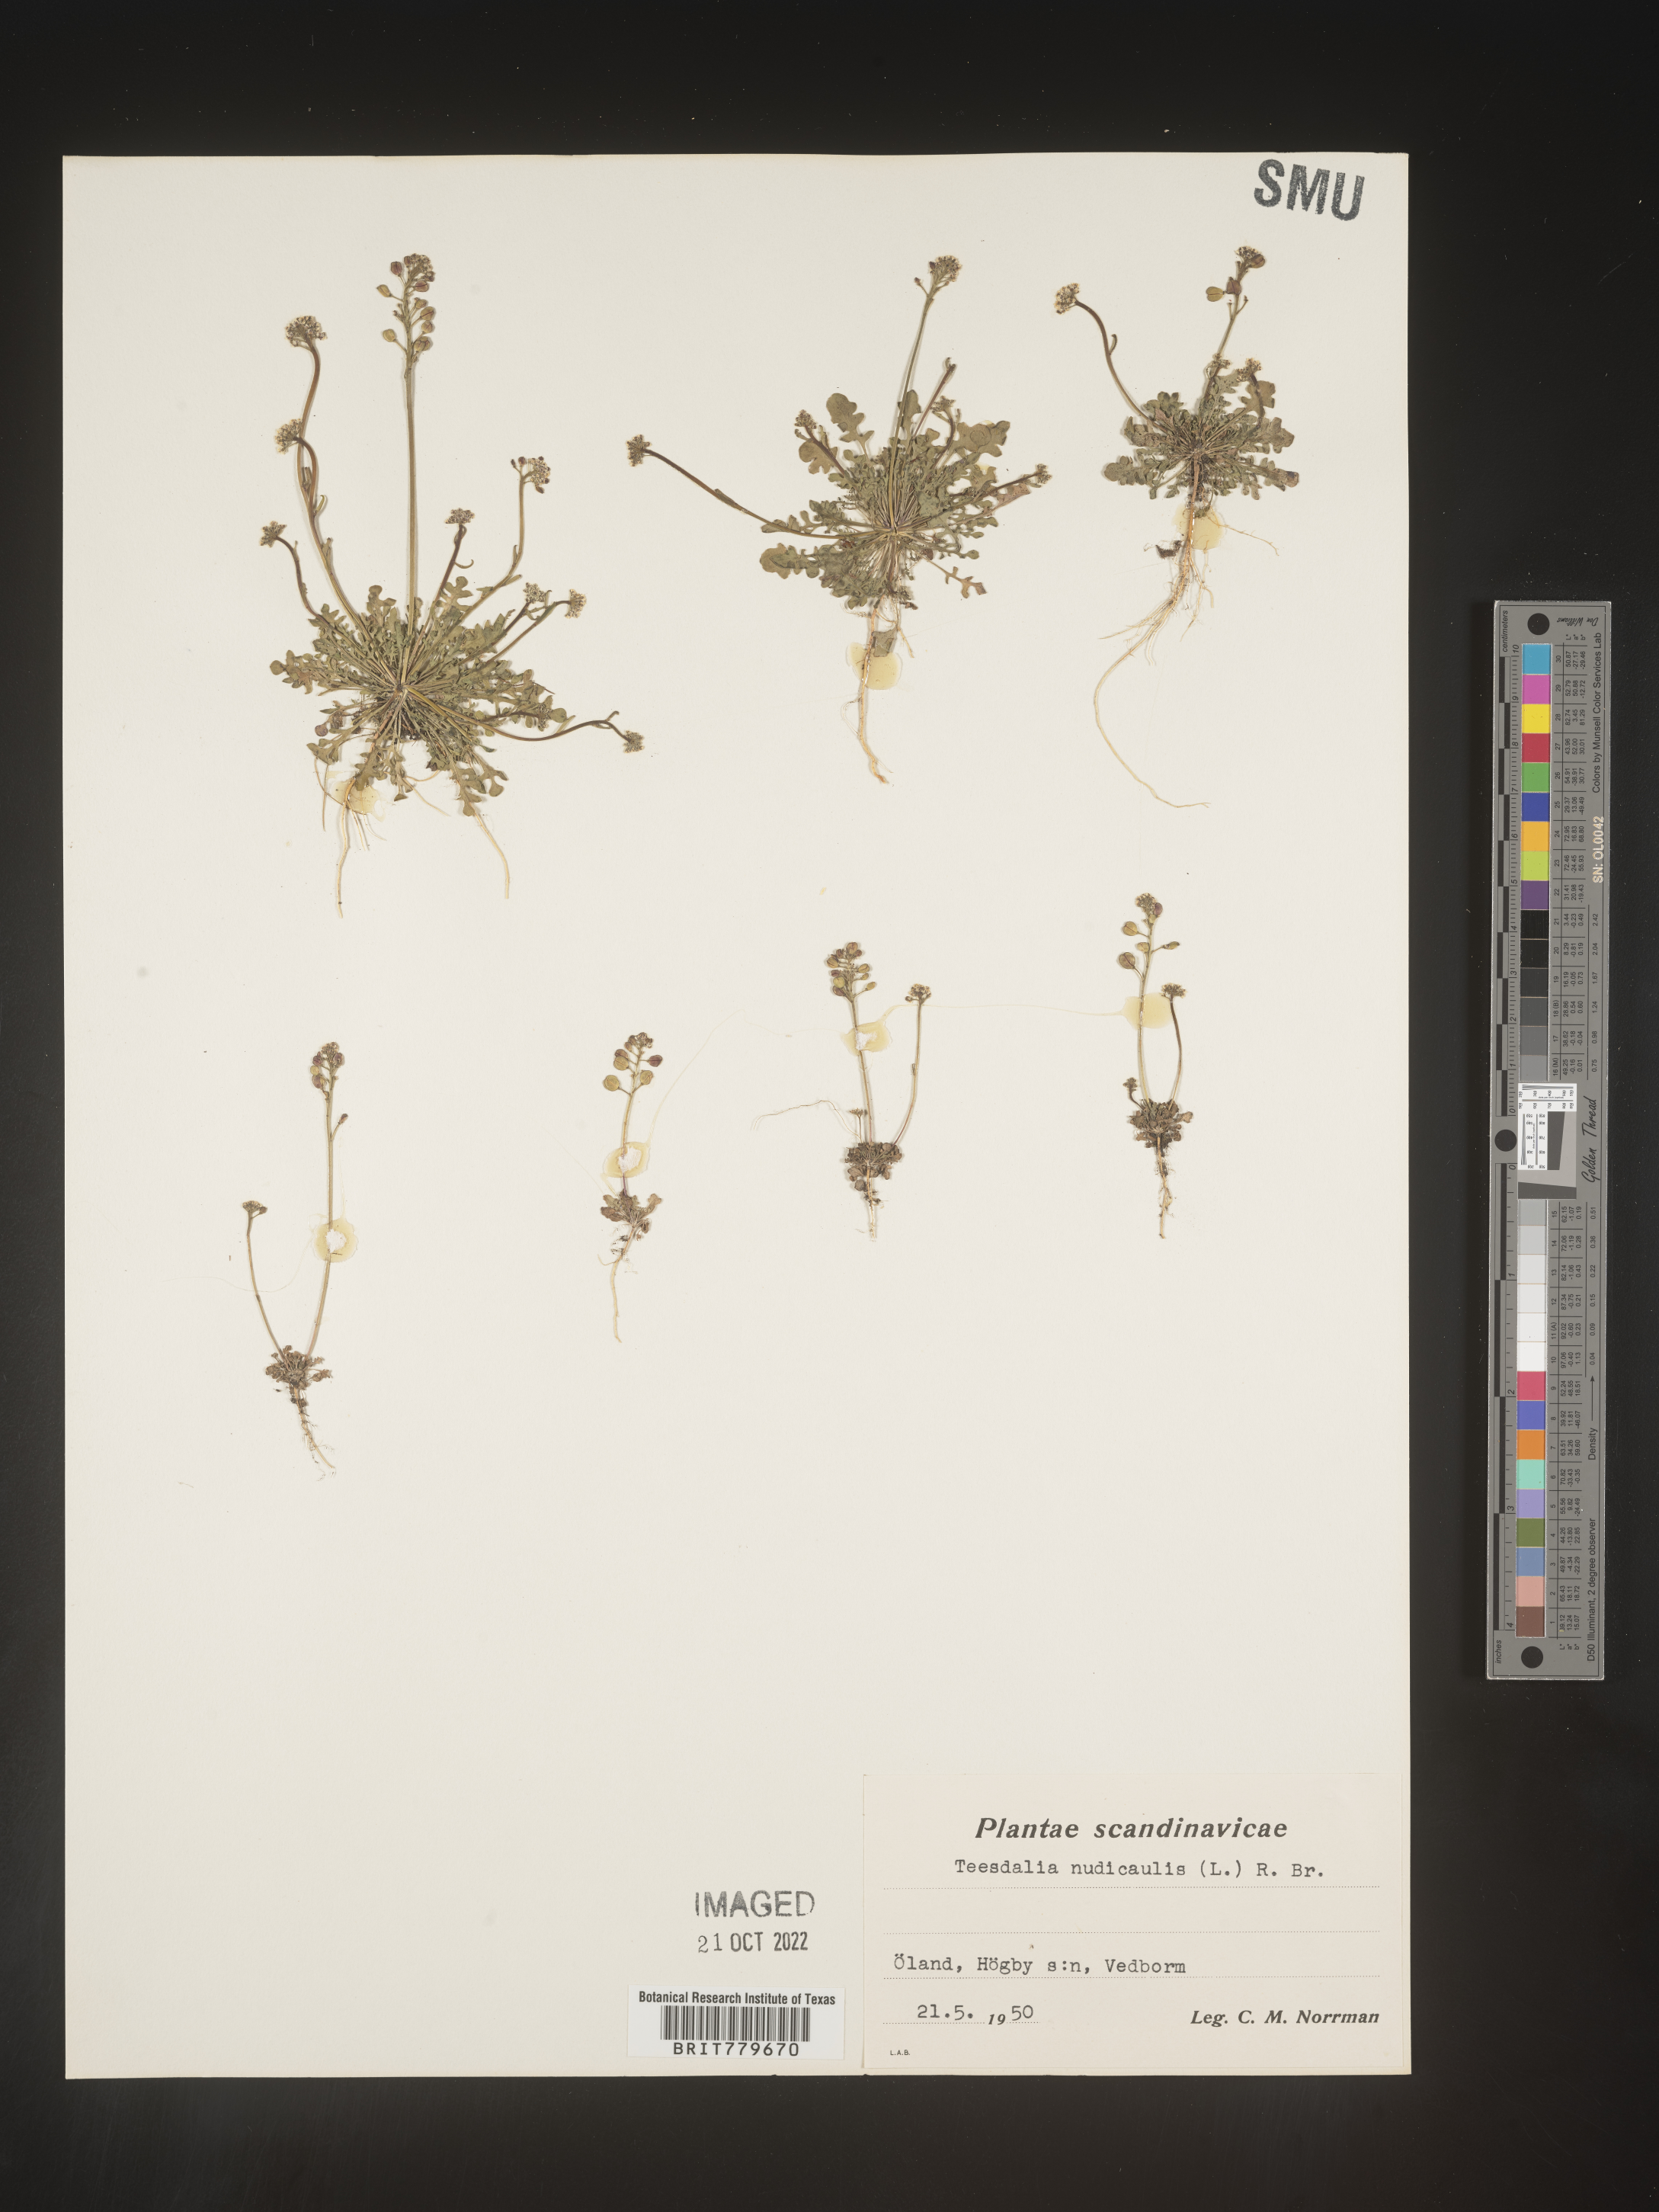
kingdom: Plantae
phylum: Tracheophyta
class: Magnoliopsida
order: Brassicales
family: Brassicaceae
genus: Teesdalia
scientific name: Teesdalia
